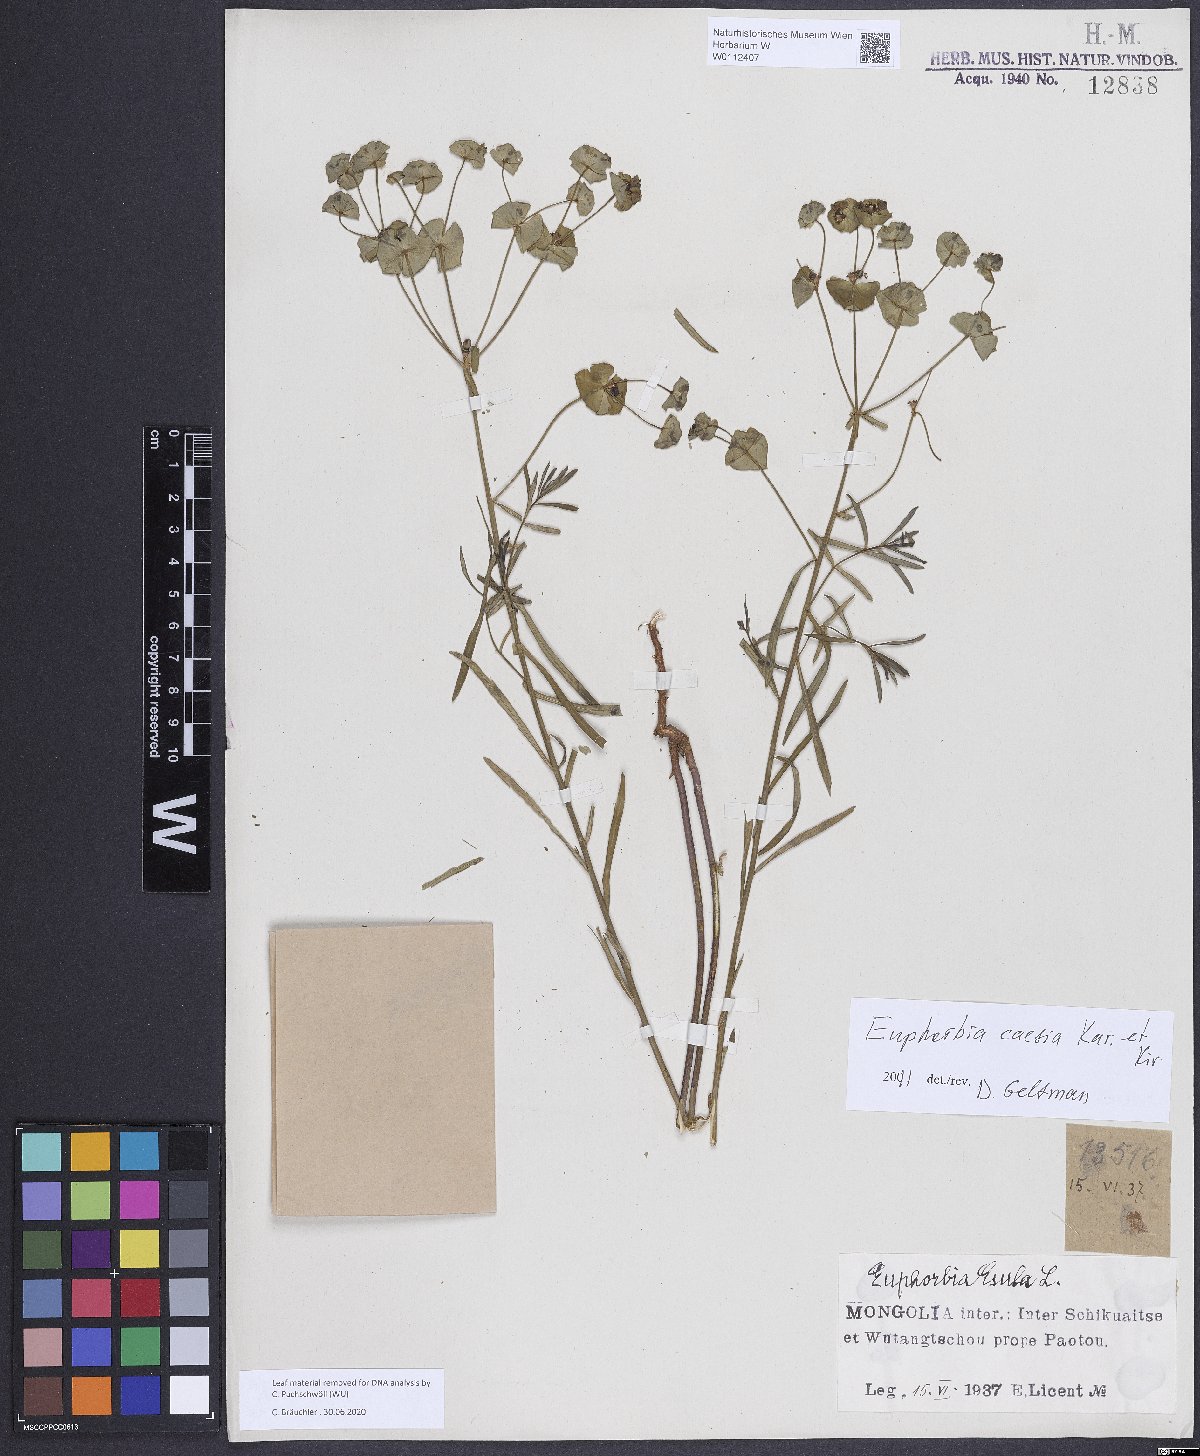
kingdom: Plantae
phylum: Tracheophyta
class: Magnoliopsida
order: Malpighiales
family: Euphorbiaceae
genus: Euphorbia
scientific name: Euphorbia esula
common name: Leafy spurge
